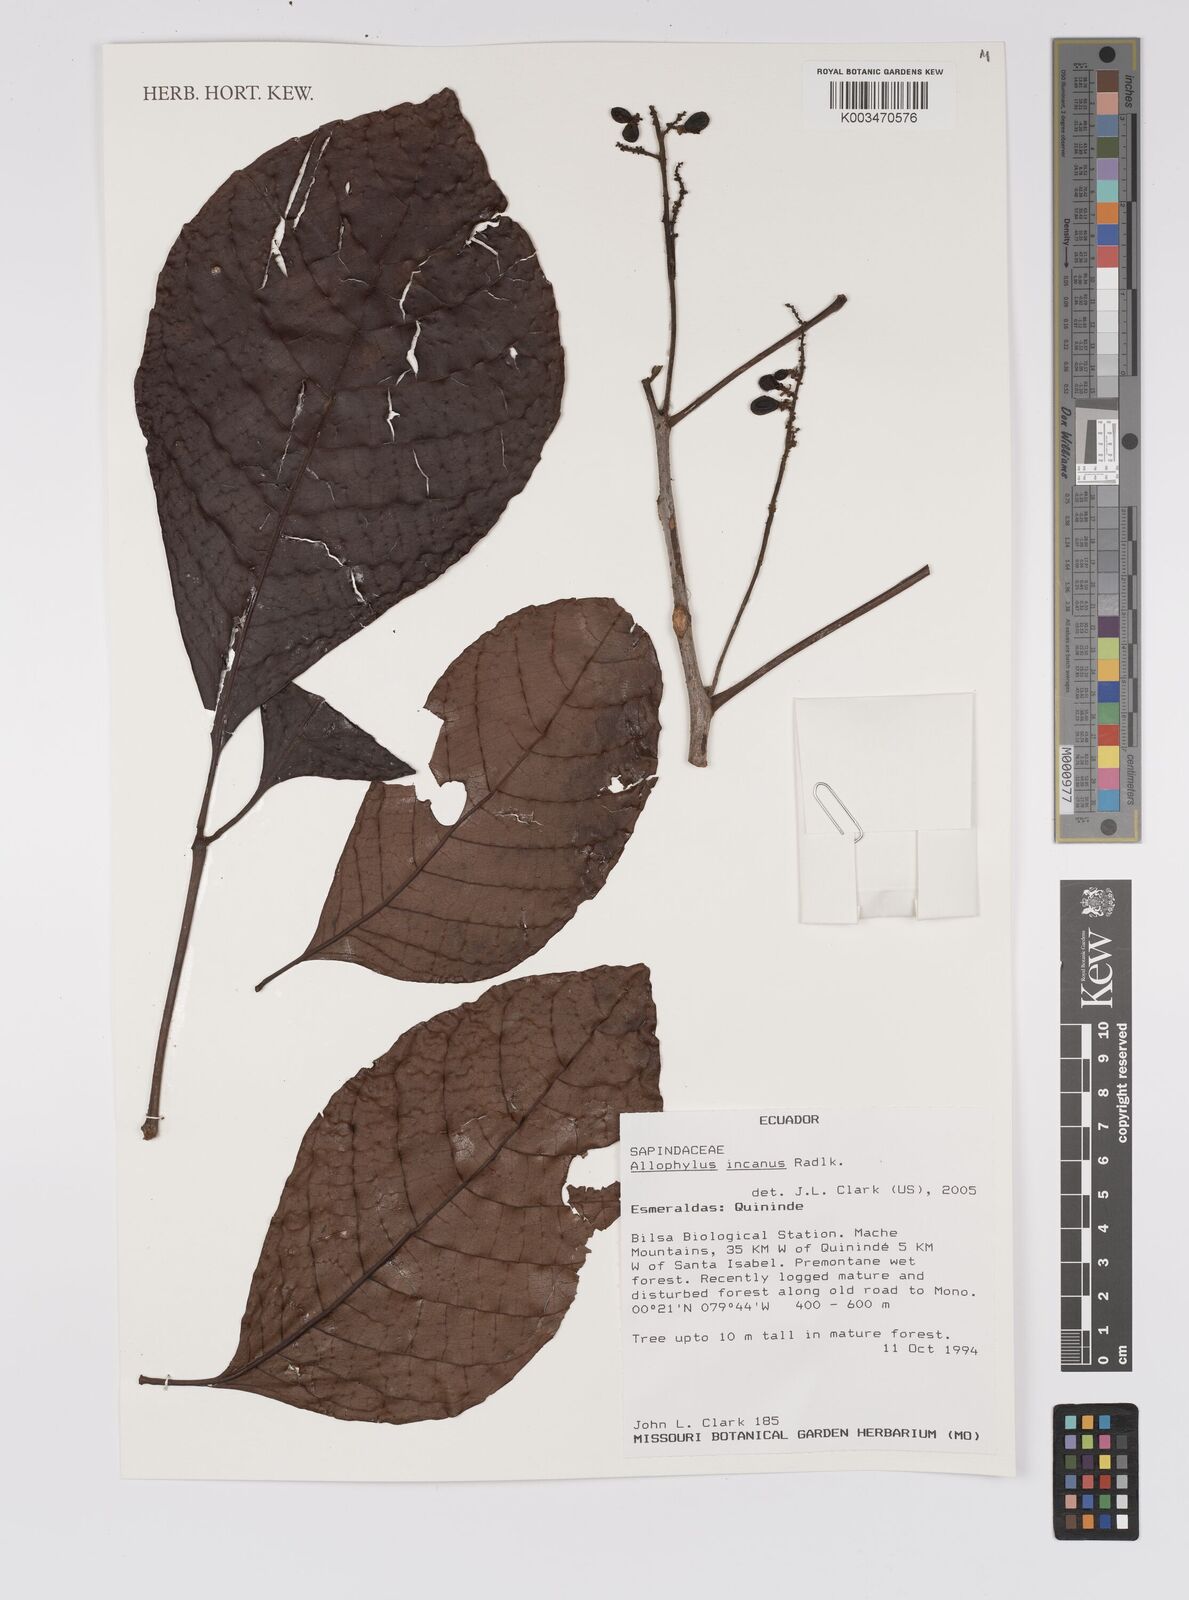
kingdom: Plantae
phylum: Tracheophyta
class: Magnoliopsida
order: Sapindales
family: Sapindaceae
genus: Allophylus
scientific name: Allophylus incanus
